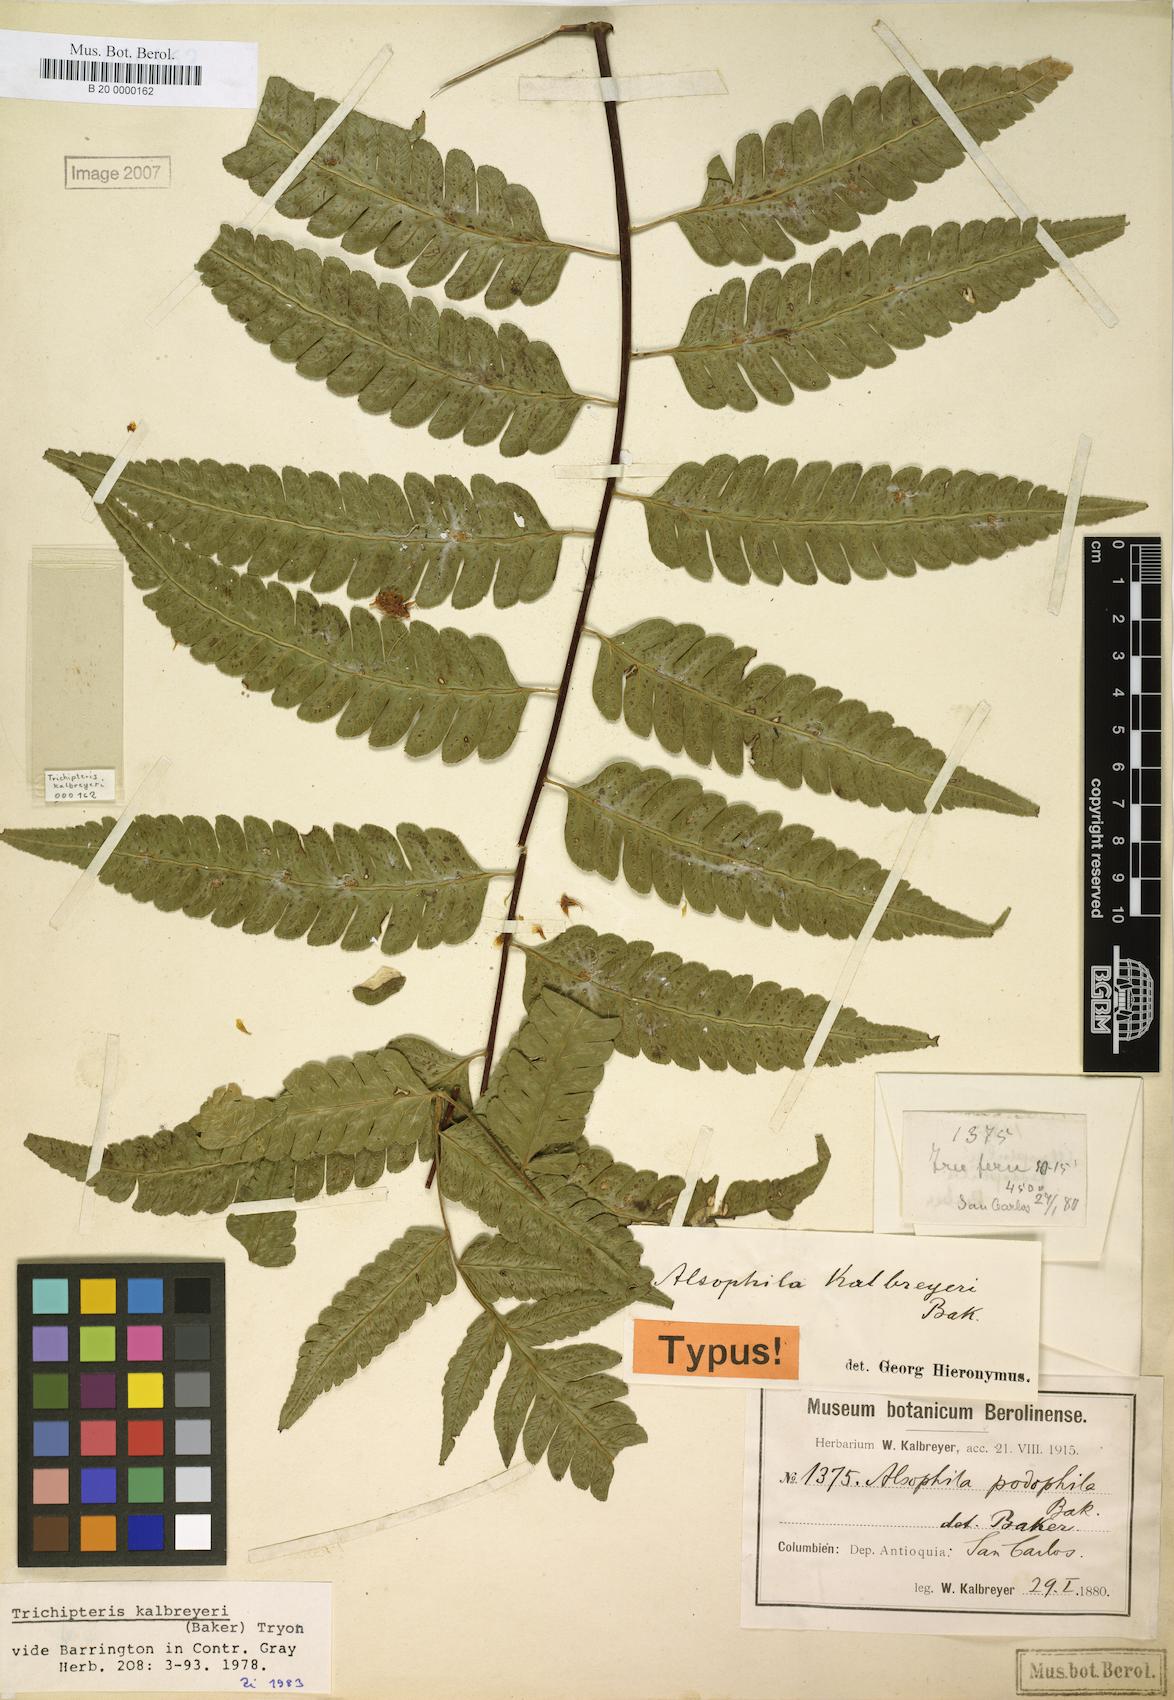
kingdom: Plantae
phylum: Tracheophyta
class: Polypodiopsida
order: Cyatheales
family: Cyatheaceae
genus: Cyathea
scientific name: Cyathea kalbreyeri
